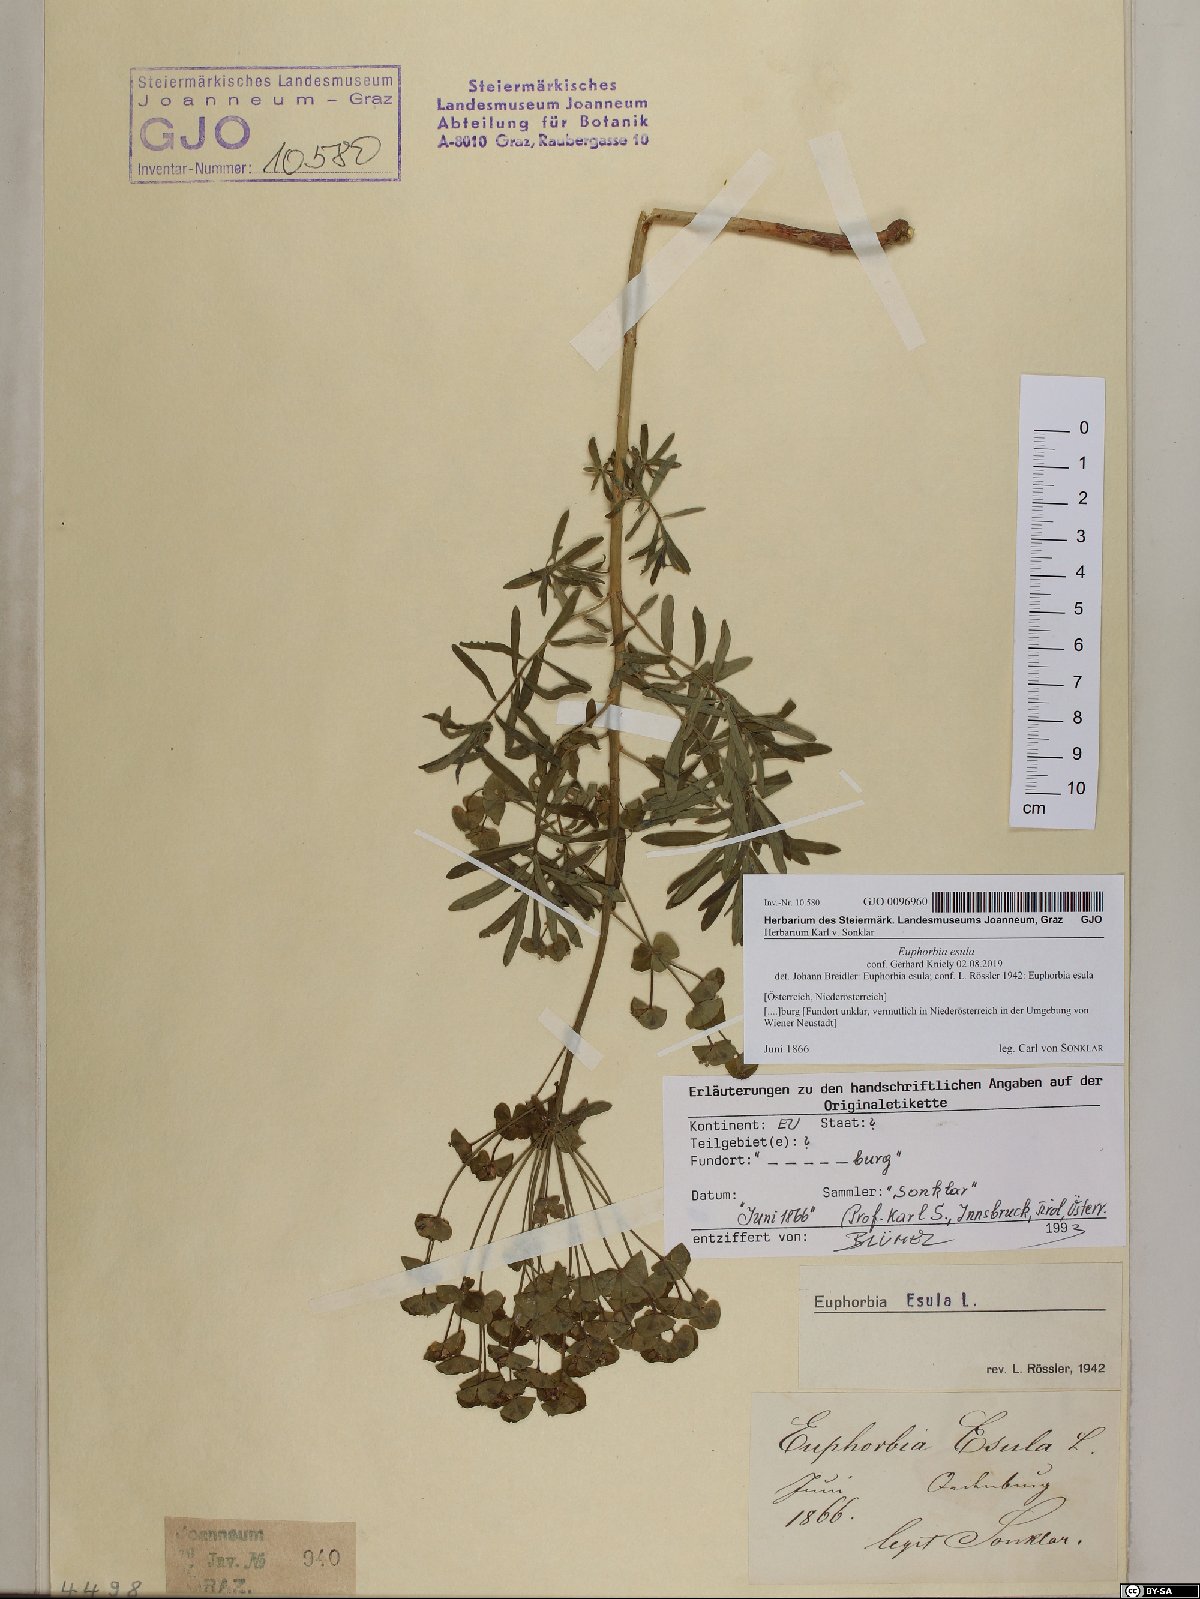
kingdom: Plantae
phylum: Tracheophyta
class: Magnoliopsida
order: Malpighiales
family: Euphorbiaceae
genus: Euphorbia
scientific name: Euphorbia esula
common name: Leafy spurge
